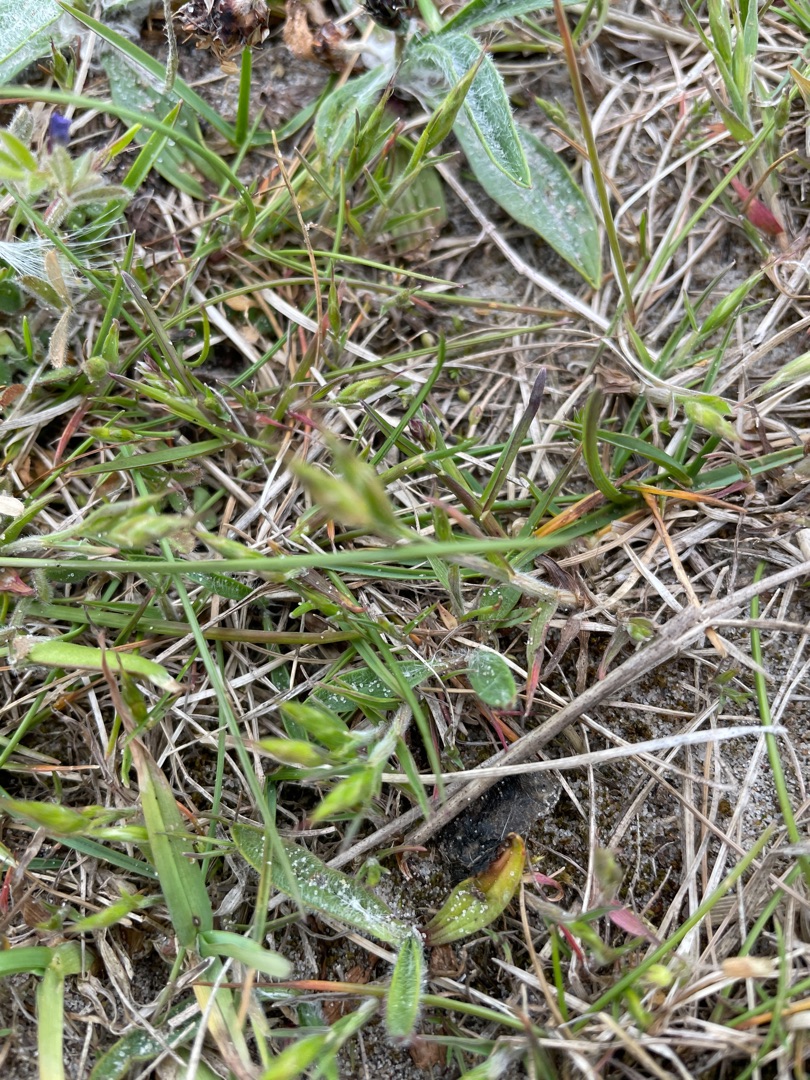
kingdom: Plantae
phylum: Tracheophyta
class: Liliopsida
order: Poales
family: Poaceae
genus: Bromus
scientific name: Bromus hordeaceus
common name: Blød hejre
